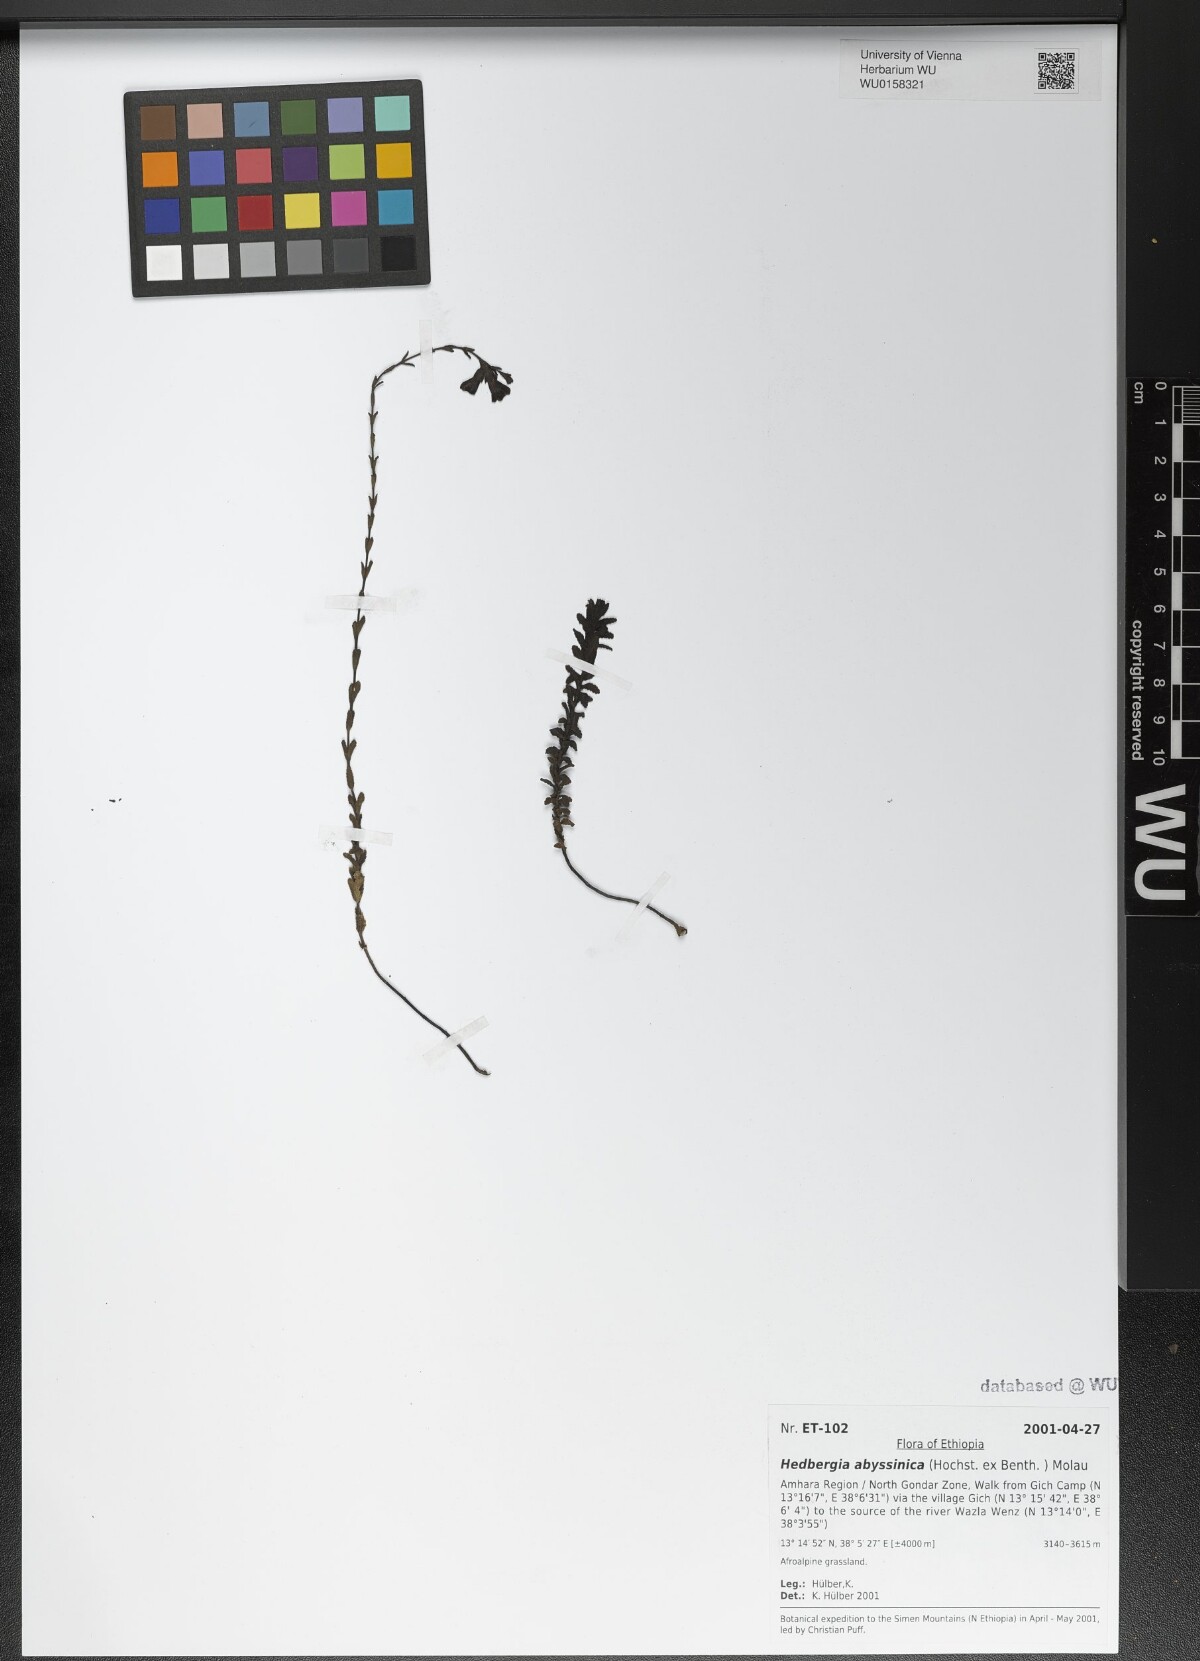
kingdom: Plantae
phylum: Tracheophyta
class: Magnoliopsida
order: Lamiales
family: Orobanchaceae
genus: Hedbergia
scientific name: Hedbergia abyssinica
